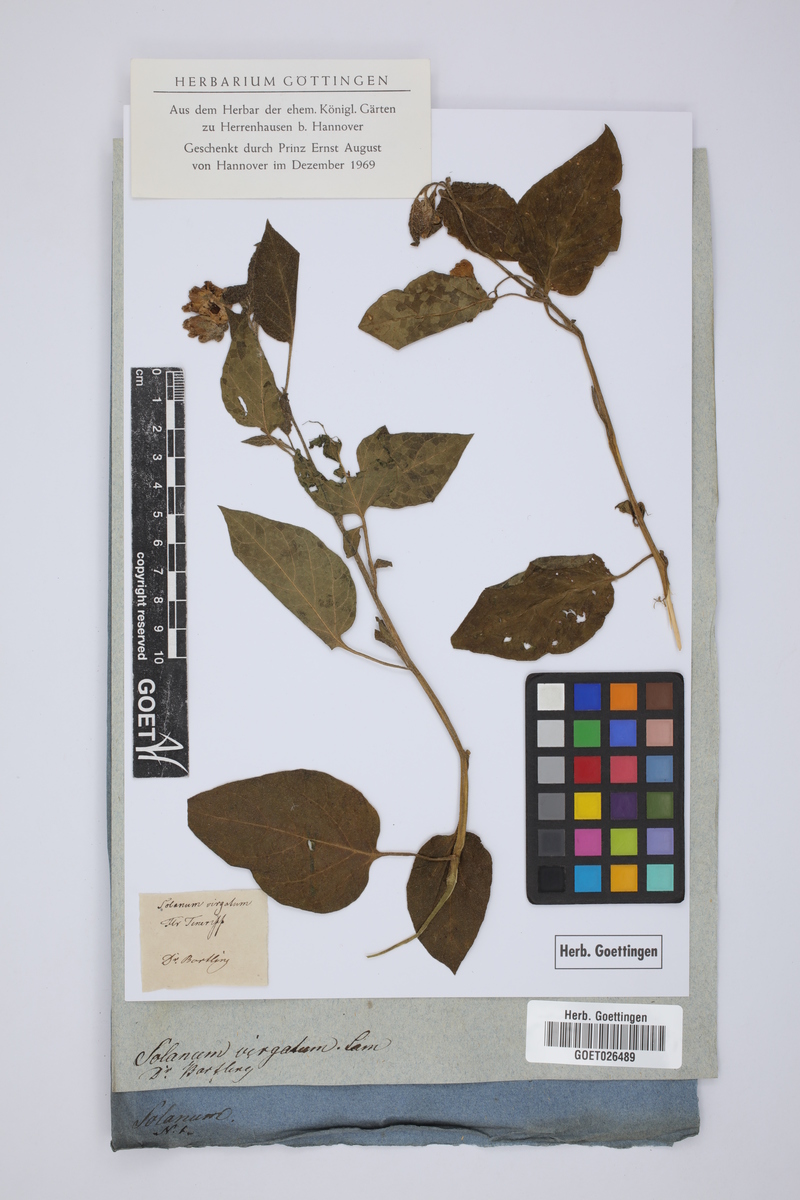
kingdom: Plantae
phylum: Tracheophyta
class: Magnoliopsida
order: Solanales
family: Solanaceae
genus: Lycianthes
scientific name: Lycianthes virgata
